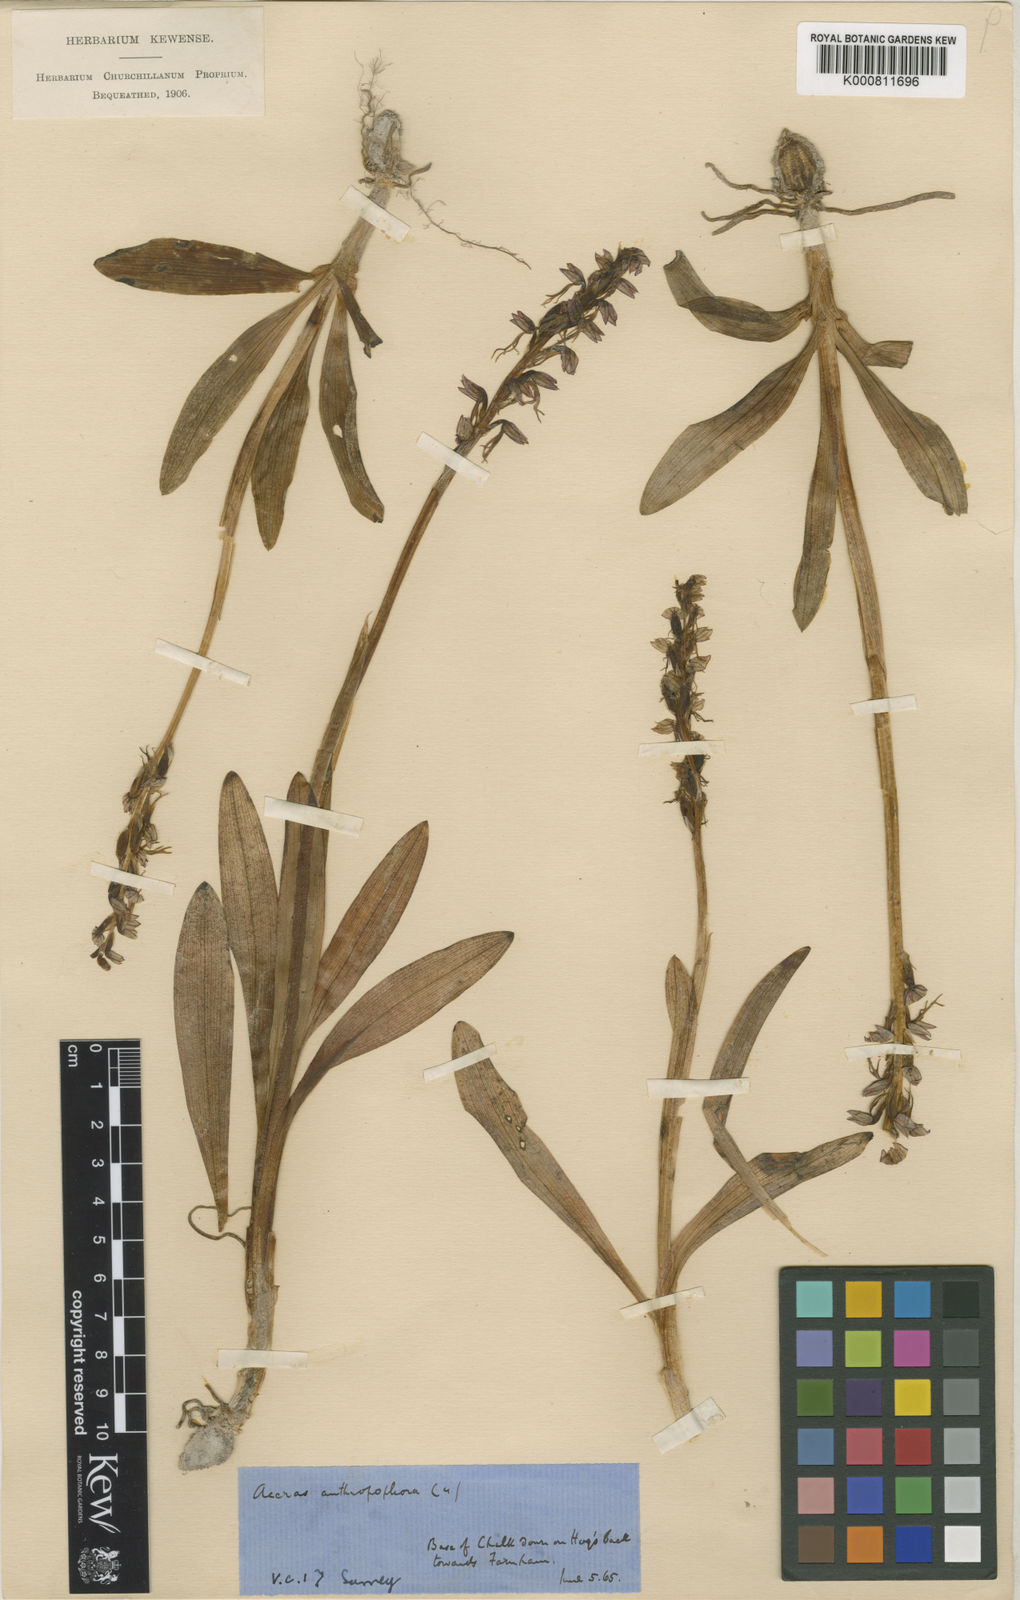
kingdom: Plantae
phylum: Tracheophyta
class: Liliopsida
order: Asparagales
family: Orchidaceae
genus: Orchis
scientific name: Orchis
